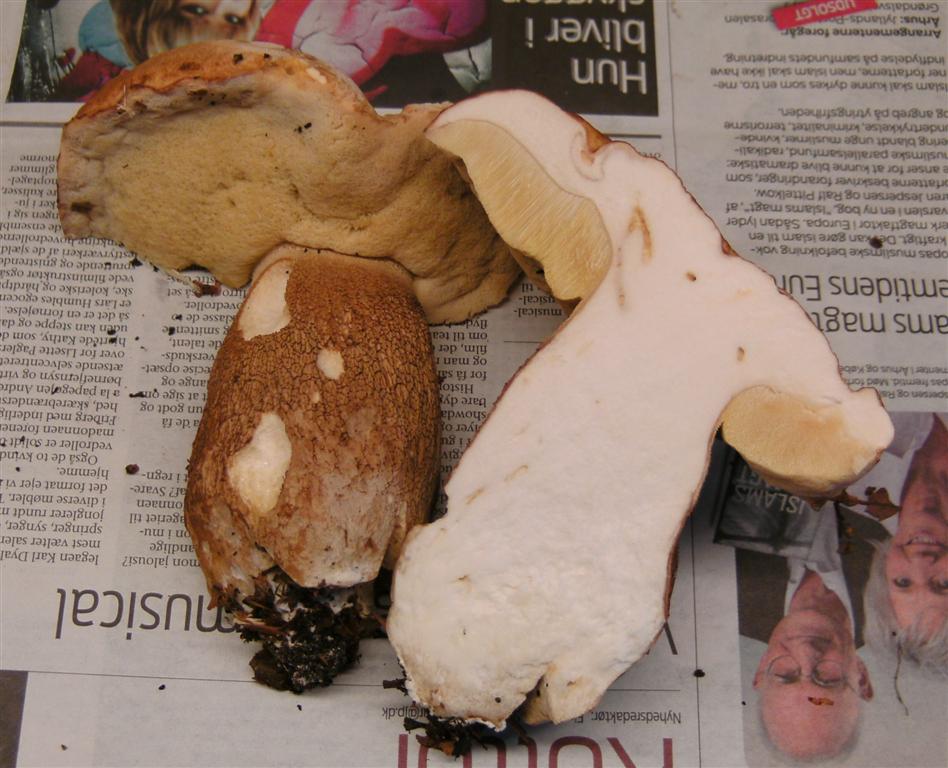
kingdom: Fungi
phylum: Basidiomycota
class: Agaricomycetes
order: Boletales
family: Boletaceae
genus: Boletus
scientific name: Boletus reticulatus
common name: sommer-rørhat
